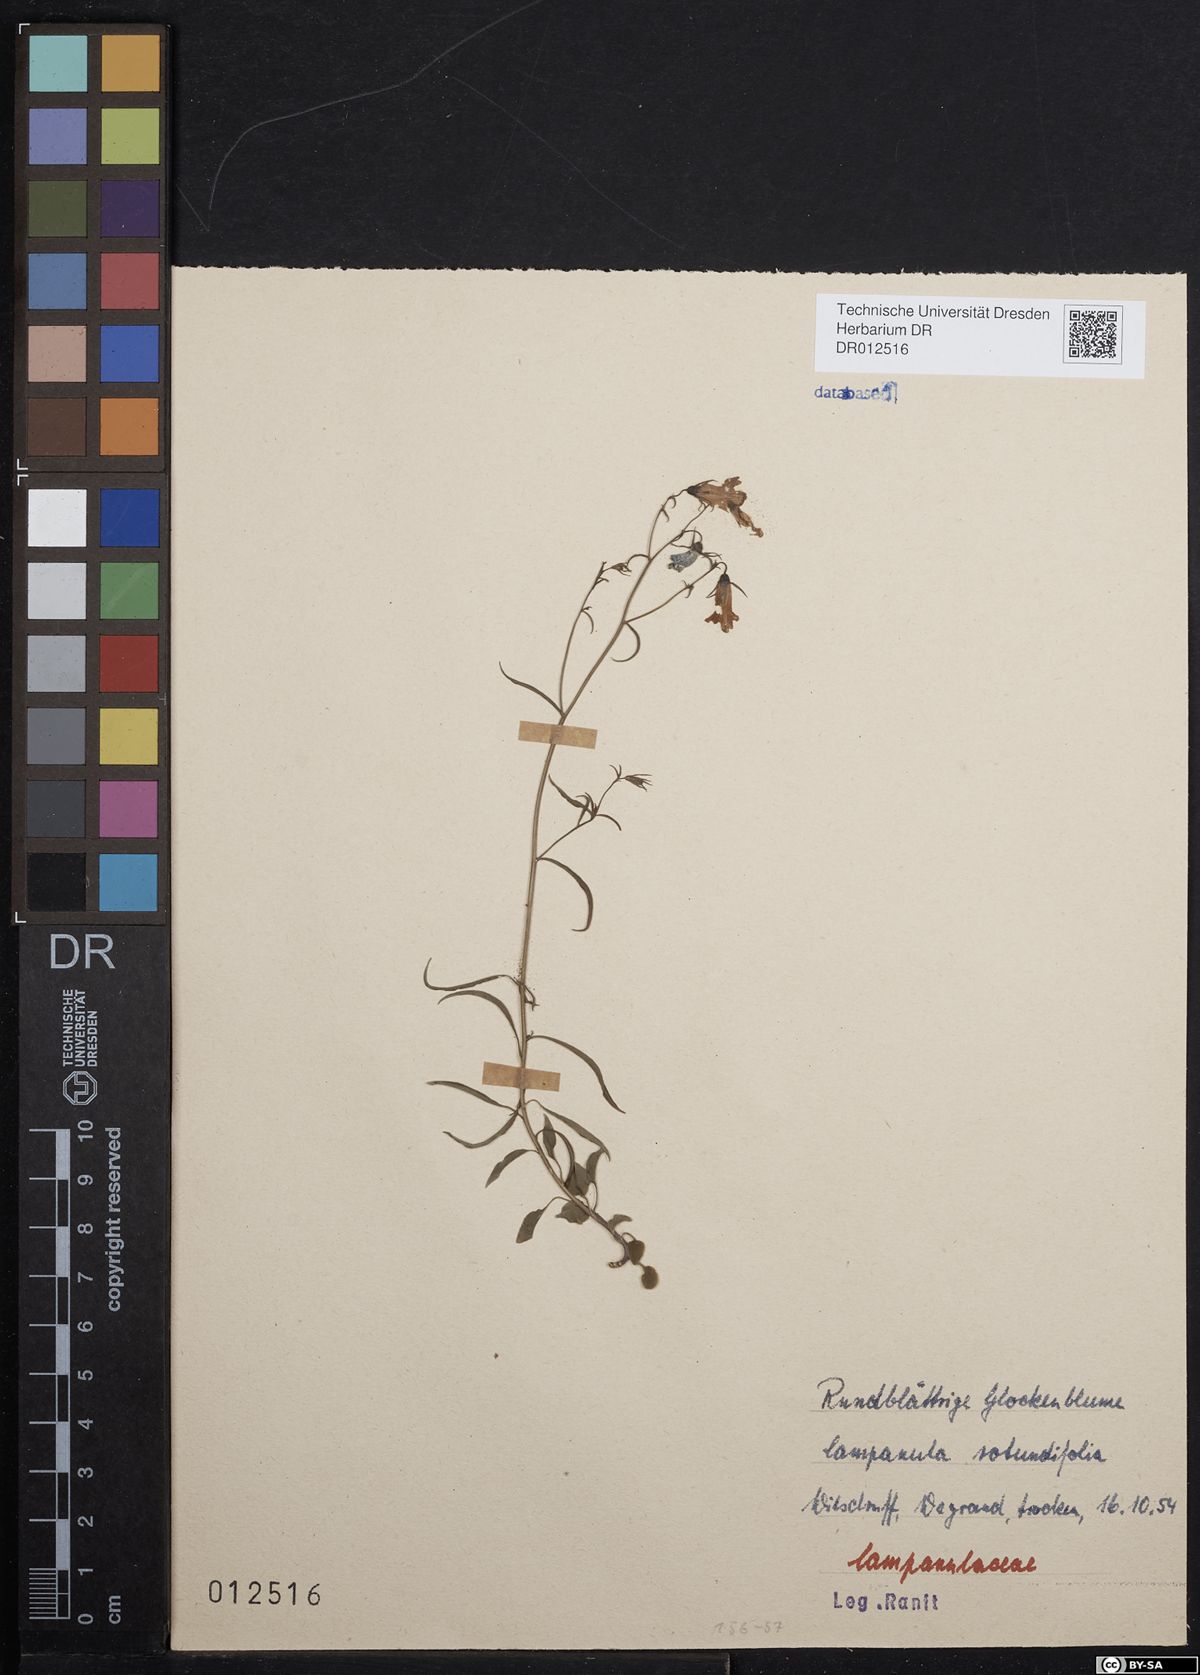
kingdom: Plantae
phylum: Tracheophyta
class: Magnoliopsida
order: Asterales
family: Campanulaceae
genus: Campanula
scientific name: Campanula rotundifolia
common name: Harebell
